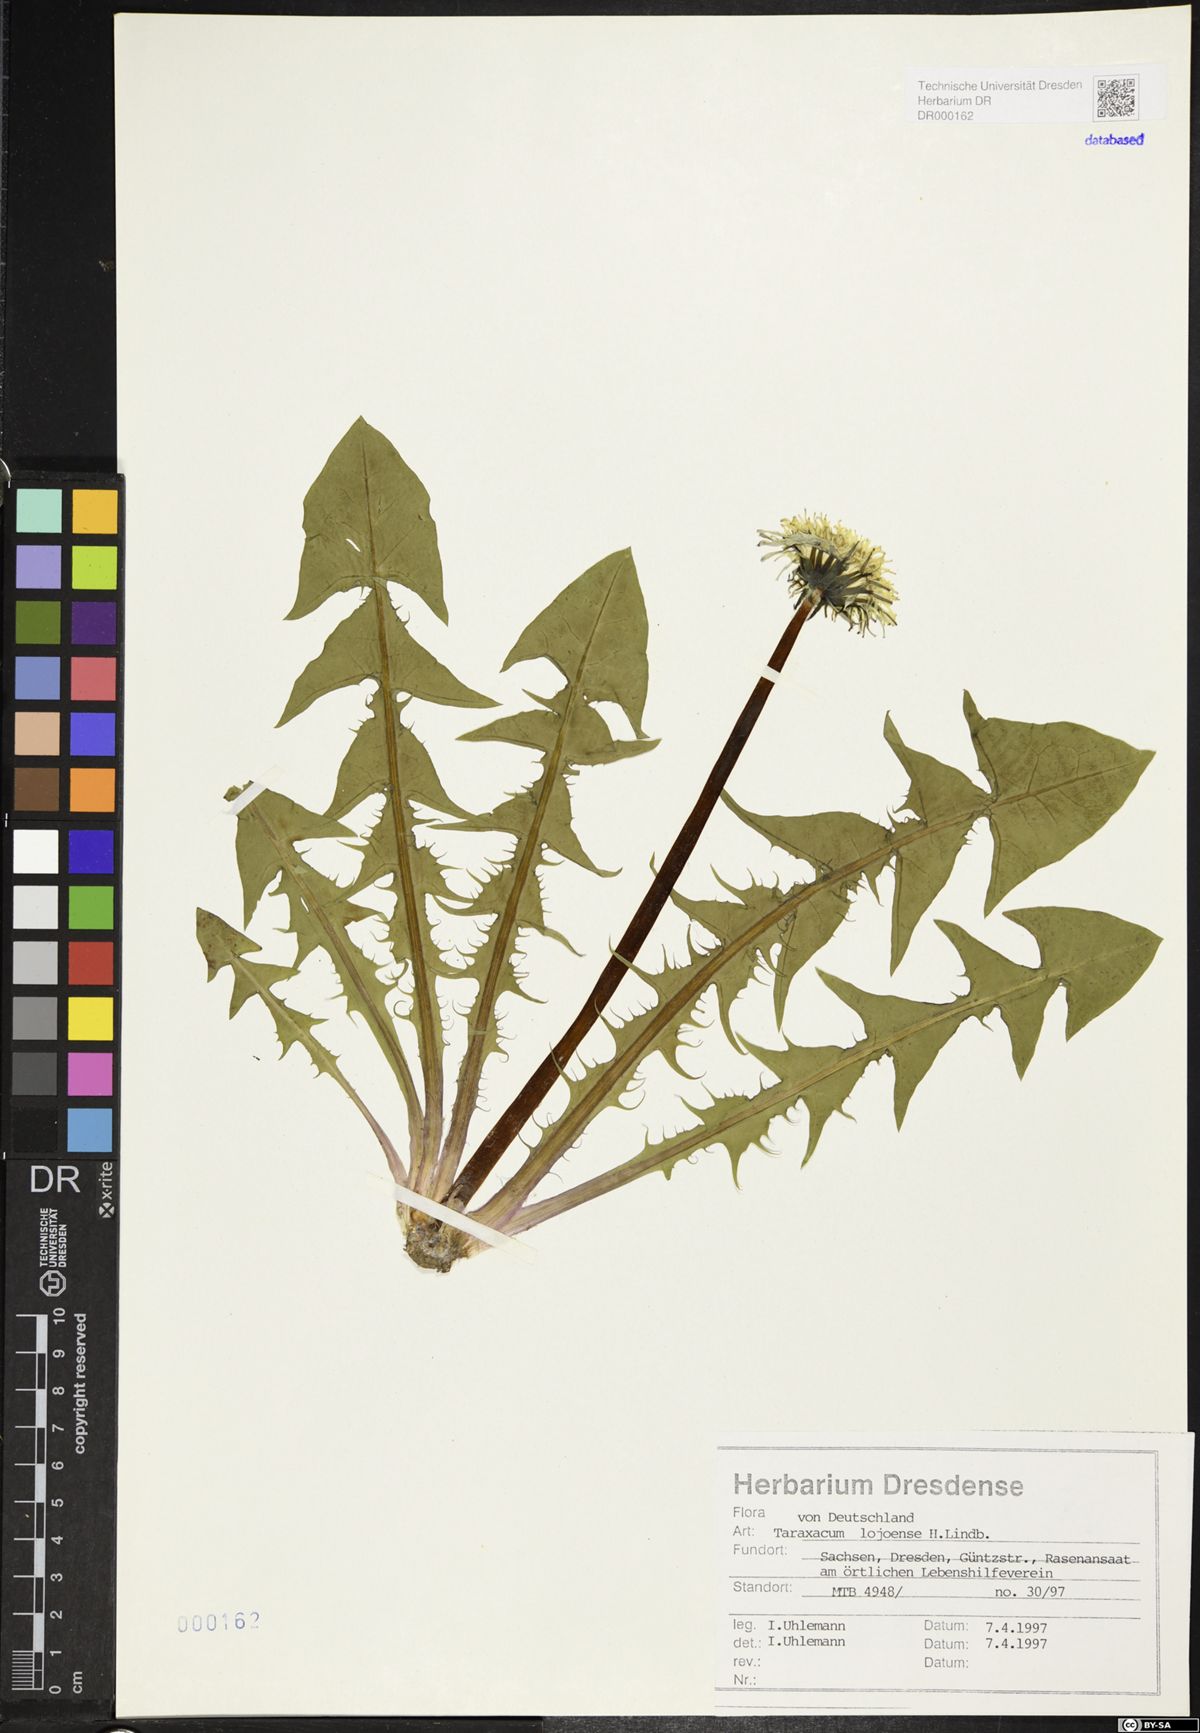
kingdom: Plantae
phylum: Tracheophyta
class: Magnoliopsida
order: Asterales
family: Asteraceae
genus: Taraxacum
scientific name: Taraxacum debrayi
